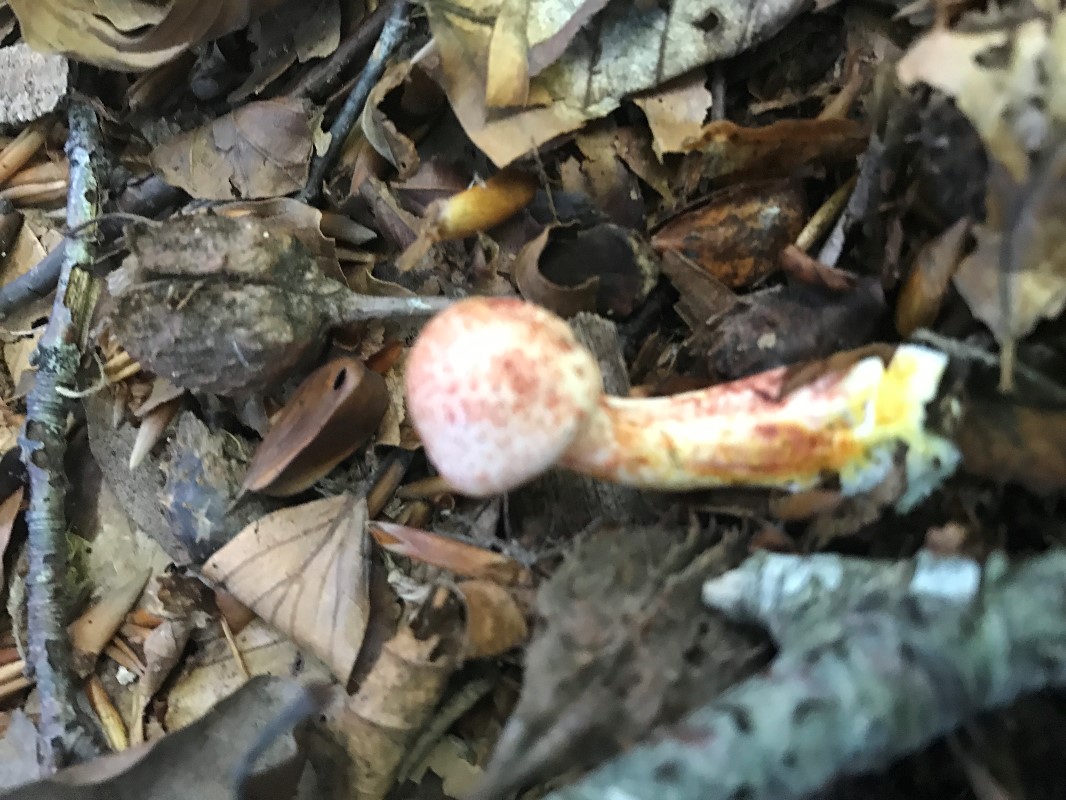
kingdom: Fungi
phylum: Basidiomycota
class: Agaricomycetes
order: Agaricales
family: Cortinariaceae
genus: Cortinarius
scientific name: Cortinarius bolaris
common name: cinnoberskællet slørhat
